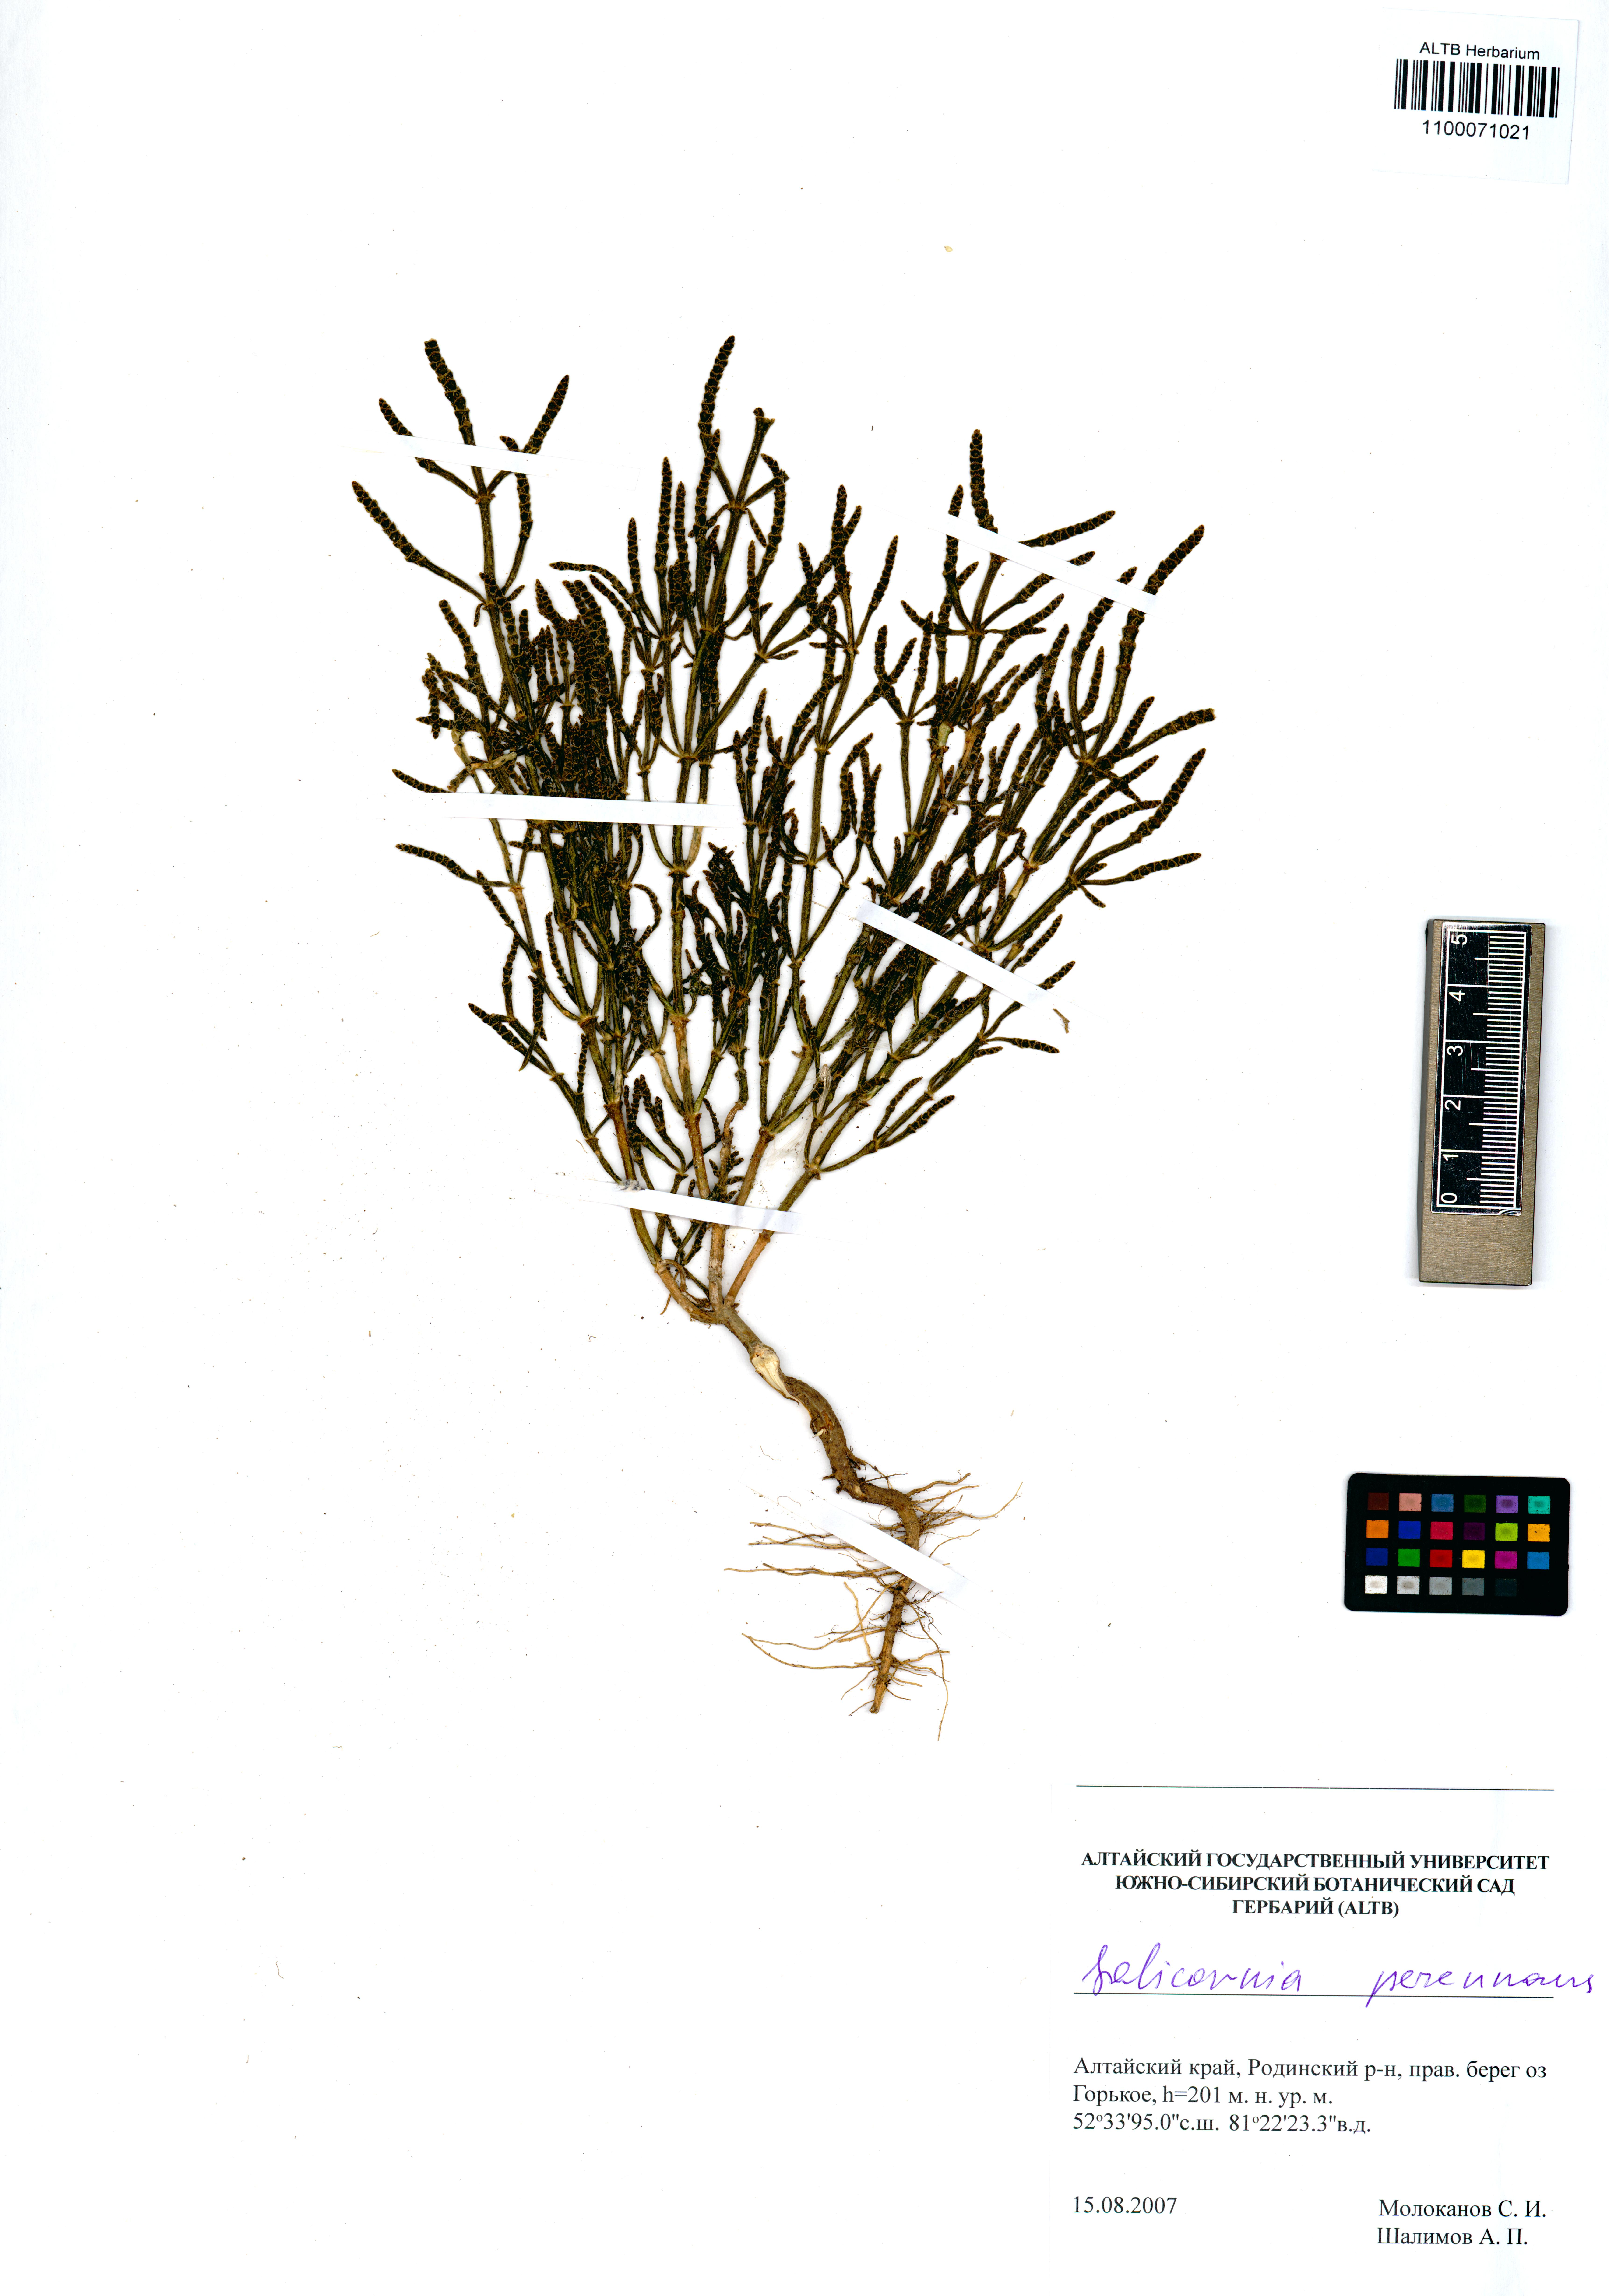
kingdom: Plantae
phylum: Tracheophyta
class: Magnoliopsida
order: Caryophyllales
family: Amaranthaceae
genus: Salicornia
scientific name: Salicornia perennans
